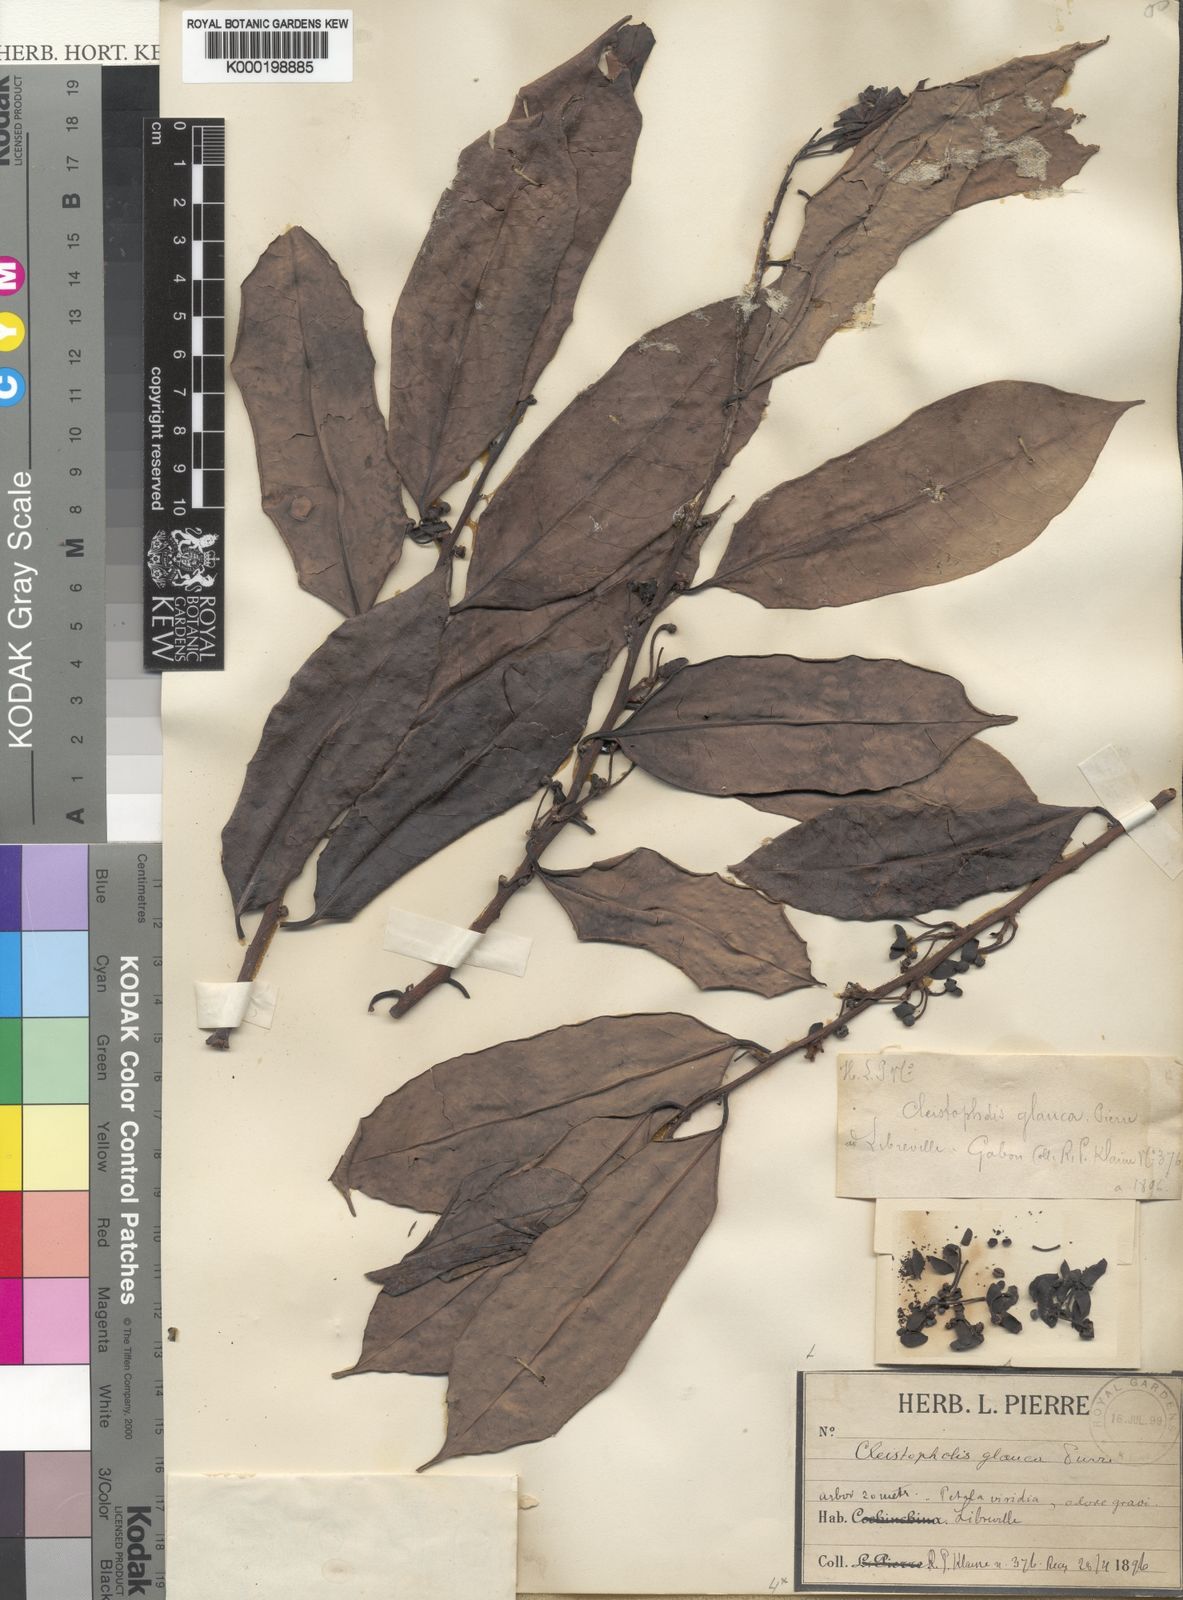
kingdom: Plantae
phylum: Tracheophyta
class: Magnoliopsida
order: Magnoliales
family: Annonaceae
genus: Cleistopholis
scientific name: Cleistopholis glauca
